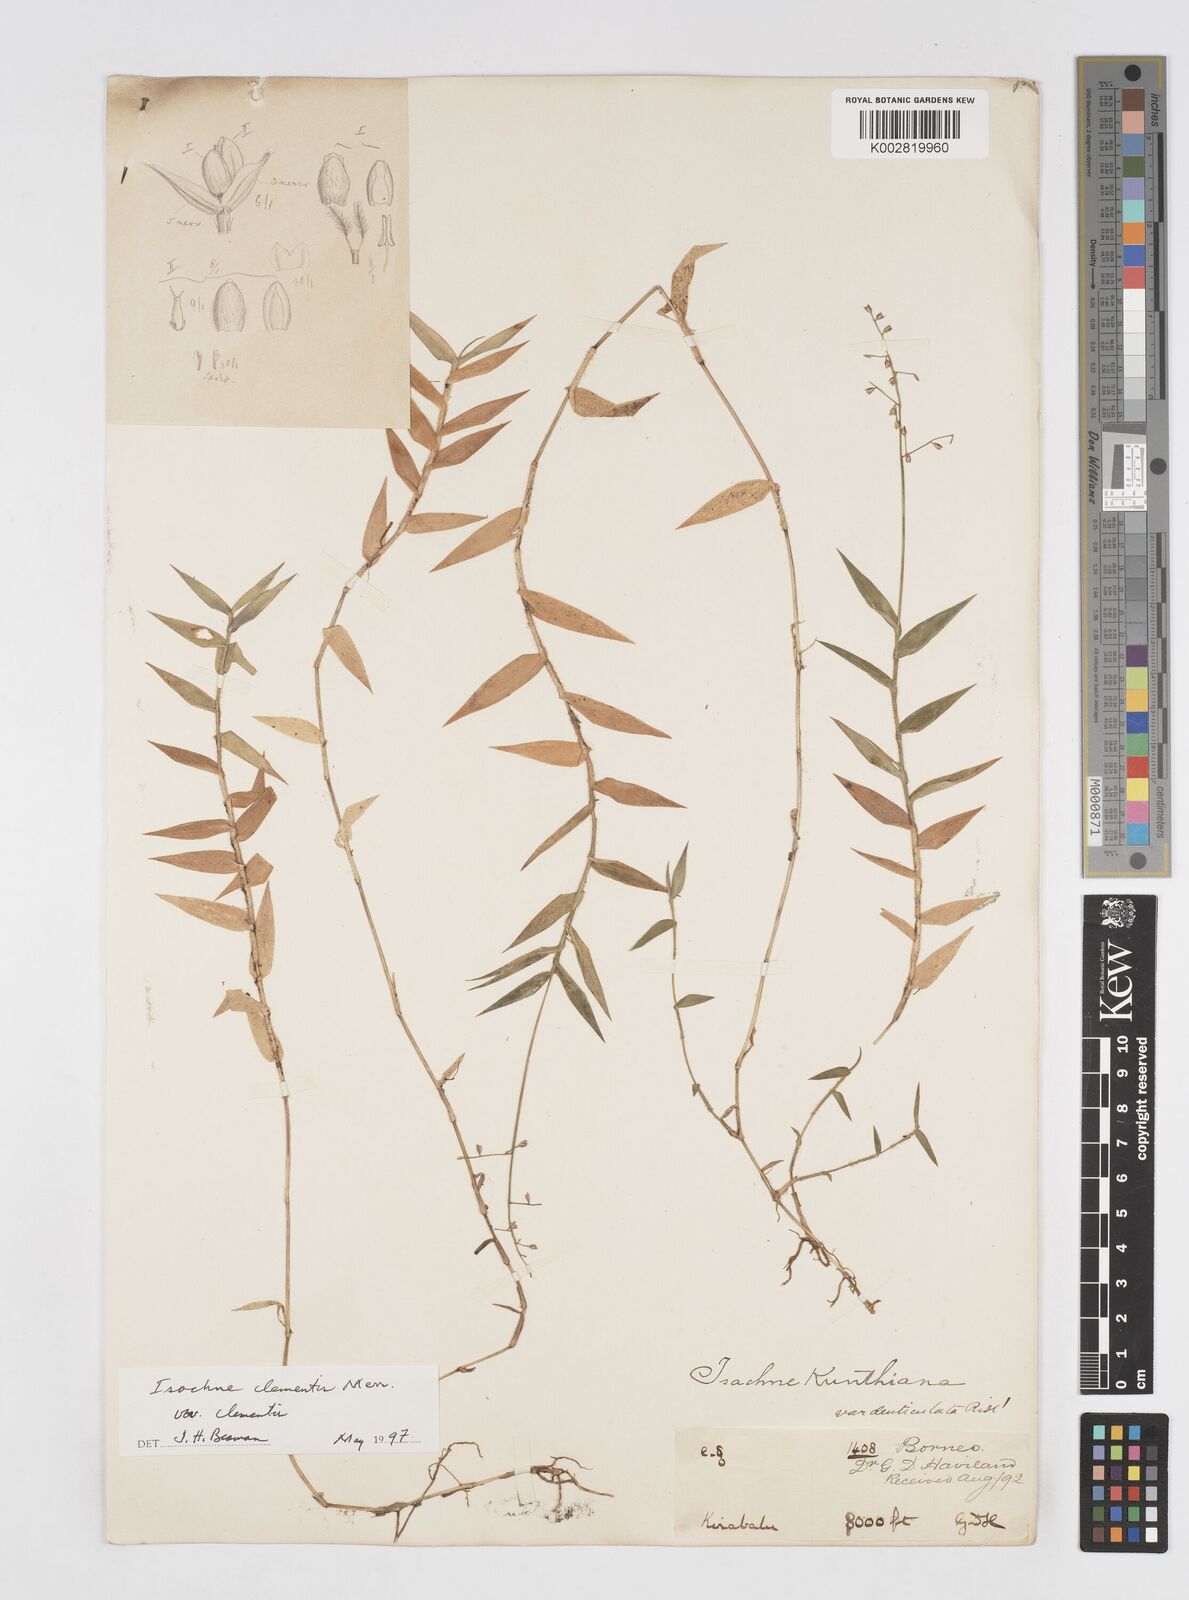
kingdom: Plantae
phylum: Tracheophyta
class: Liliopsida
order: Poales
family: Poaceae
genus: Isachne
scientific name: Isachne clementis
